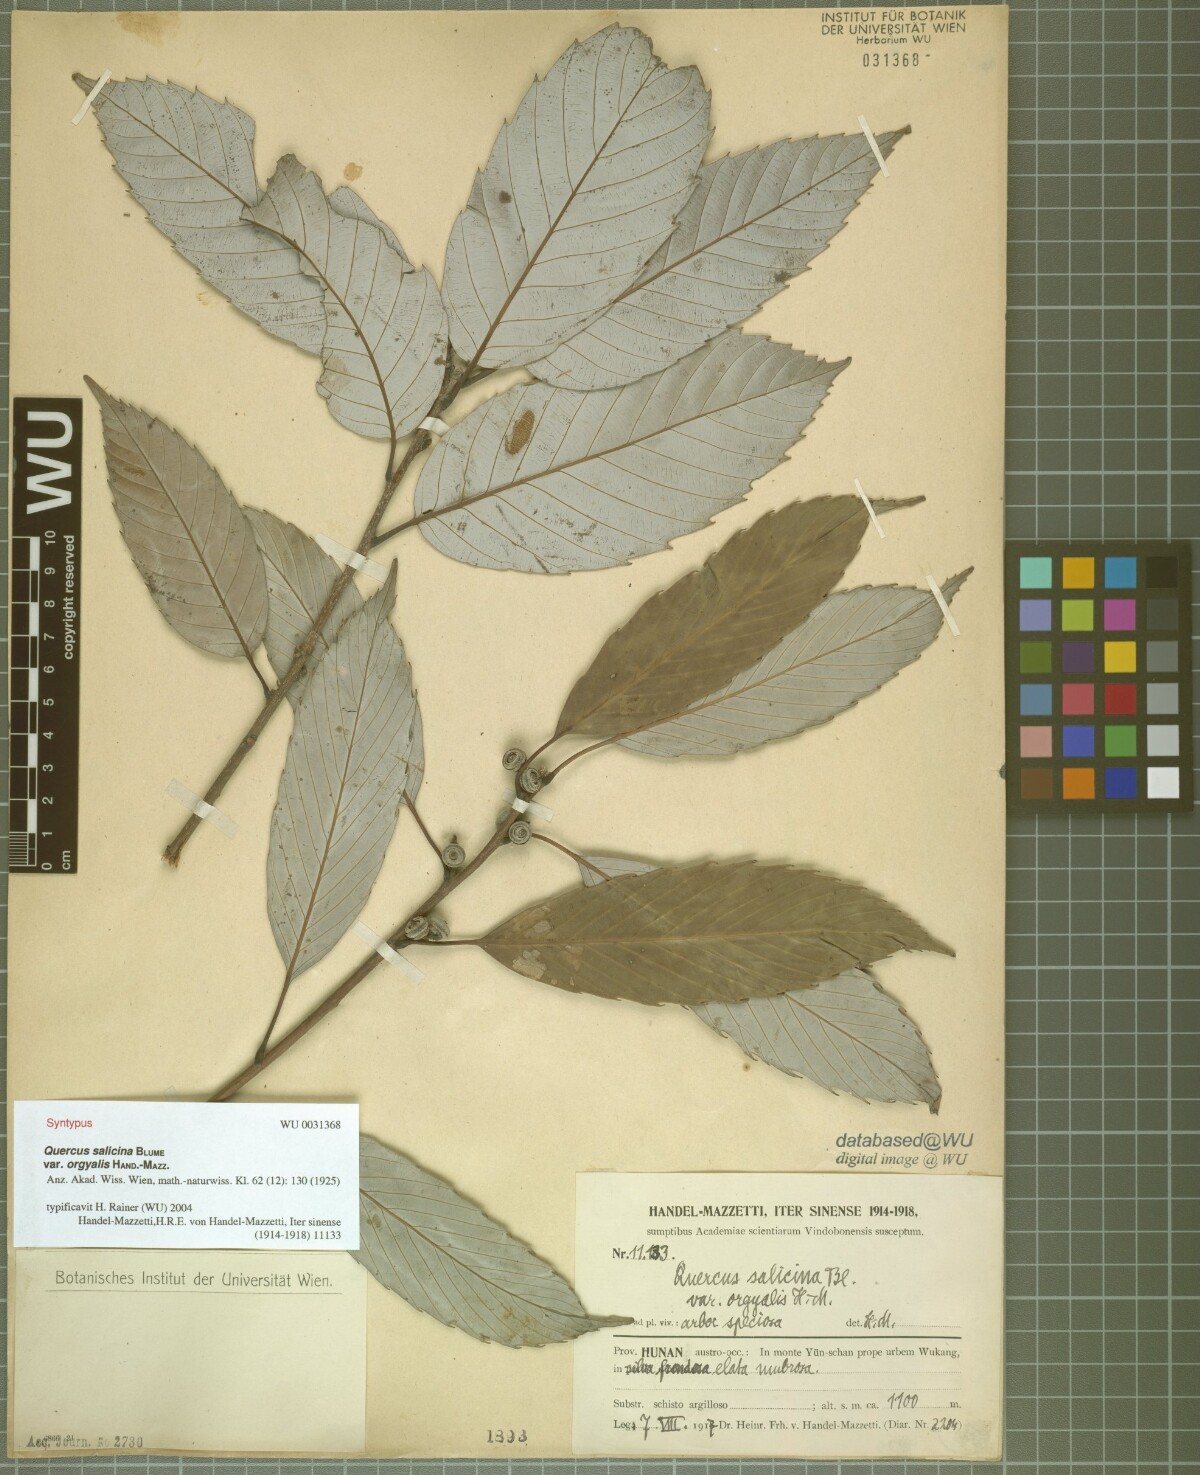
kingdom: Plantae
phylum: Tracheophyta
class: Magnoliopsida
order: Fagales
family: Fagaceae
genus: Quercus
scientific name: Quercus oxyodon
